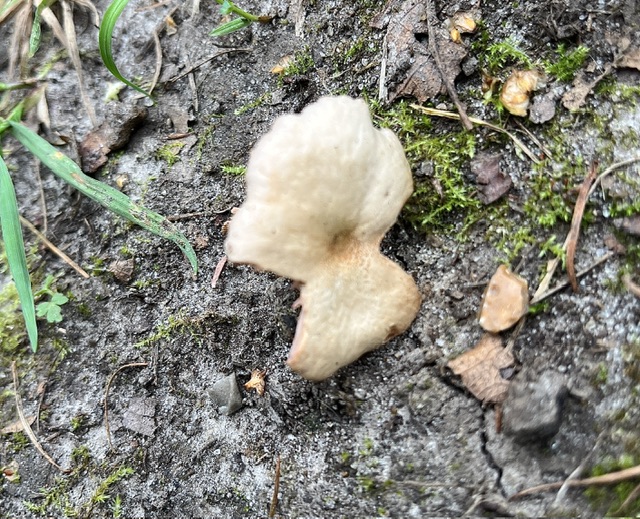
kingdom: Fungi
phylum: Basidiomycota
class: Agaricomycetes
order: Agaricales
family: Hydnangiaceae
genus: Laccaria
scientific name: Laccaria laccata
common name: rød ametysthat
